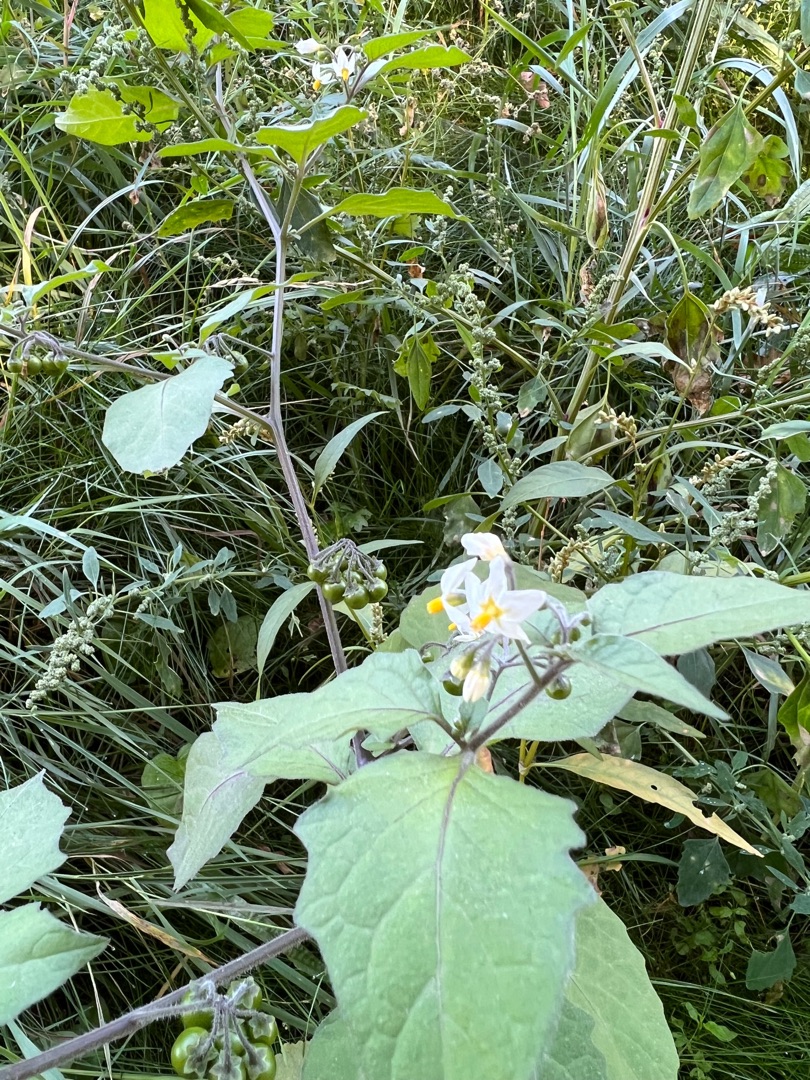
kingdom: Plantae
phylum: Tracheophyta
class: Magnoliopsida
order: Solanales
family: Solanaceae
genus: Solanum
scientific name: Solanum nigrum
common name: Sort natskygge
